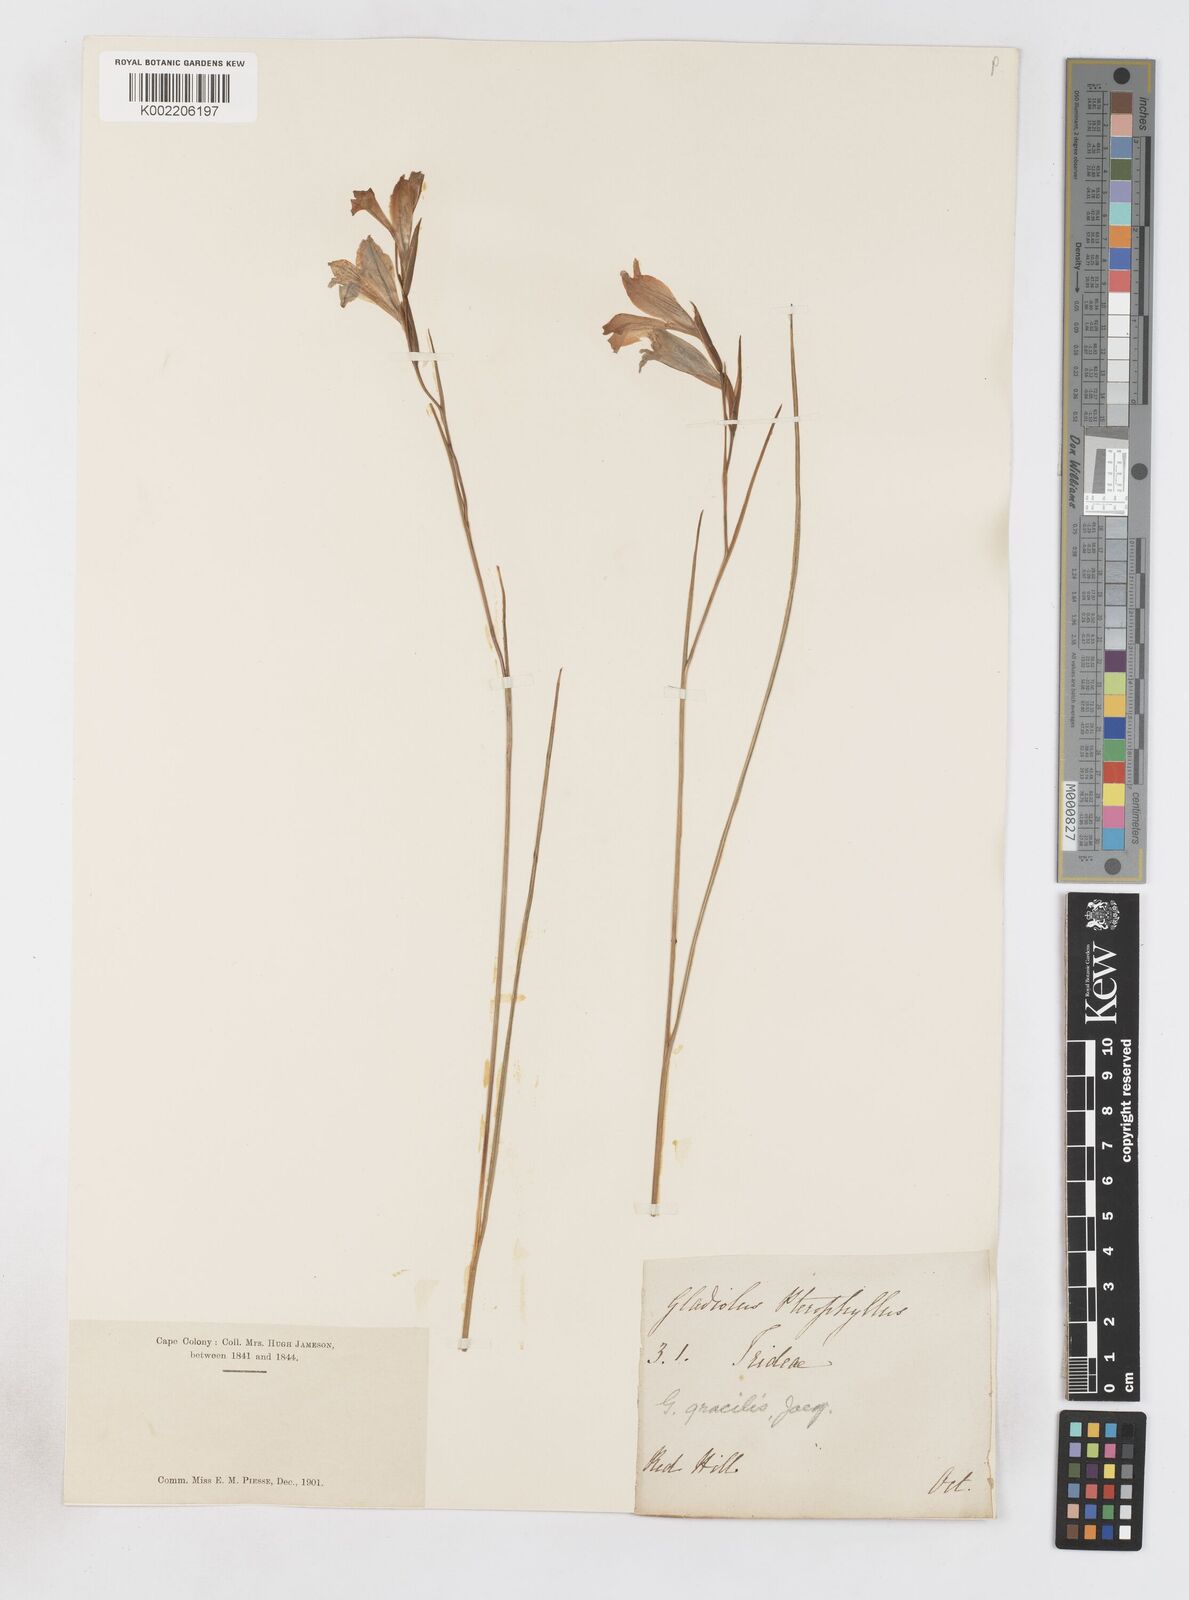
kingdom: Plantae
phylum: Tracheophyta
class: Liliopsida
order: Asparagales
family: Iridaceae
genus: Gladiolus
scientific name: Gladiolus gracilis
